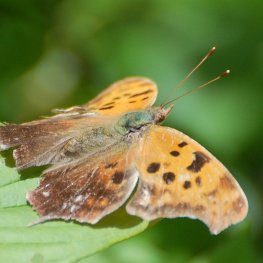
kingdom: Animalia
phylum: Arthropoda
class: Insecta
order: Lepidoptera
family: Nymphalidae
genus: Polygonia
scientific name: Polygonia interrogationis
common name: Question Mark
